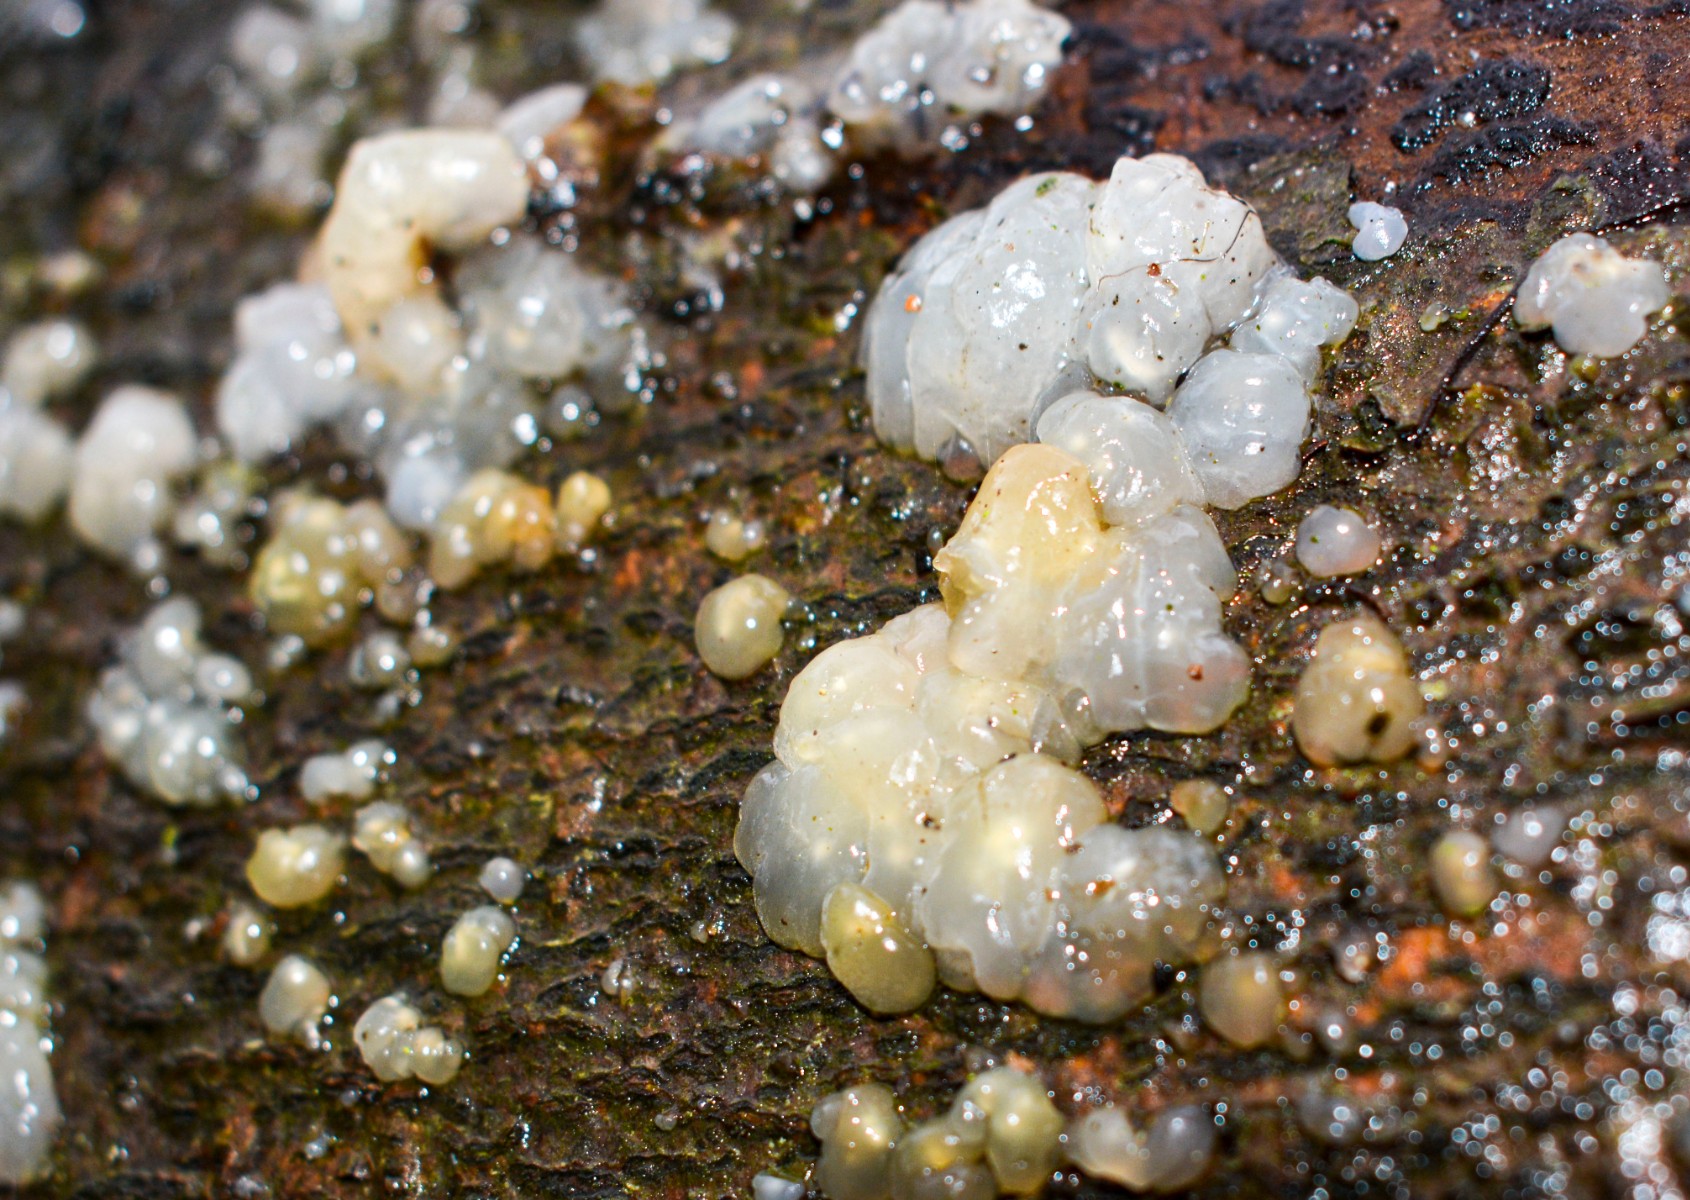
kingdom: Fungi
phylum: Basidiomycota
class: Agaricomycetes
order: Auriculariales
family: Hyaloriaceae
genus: Myxarium
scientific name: Myxarium nucleatum
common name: klar bævretop
